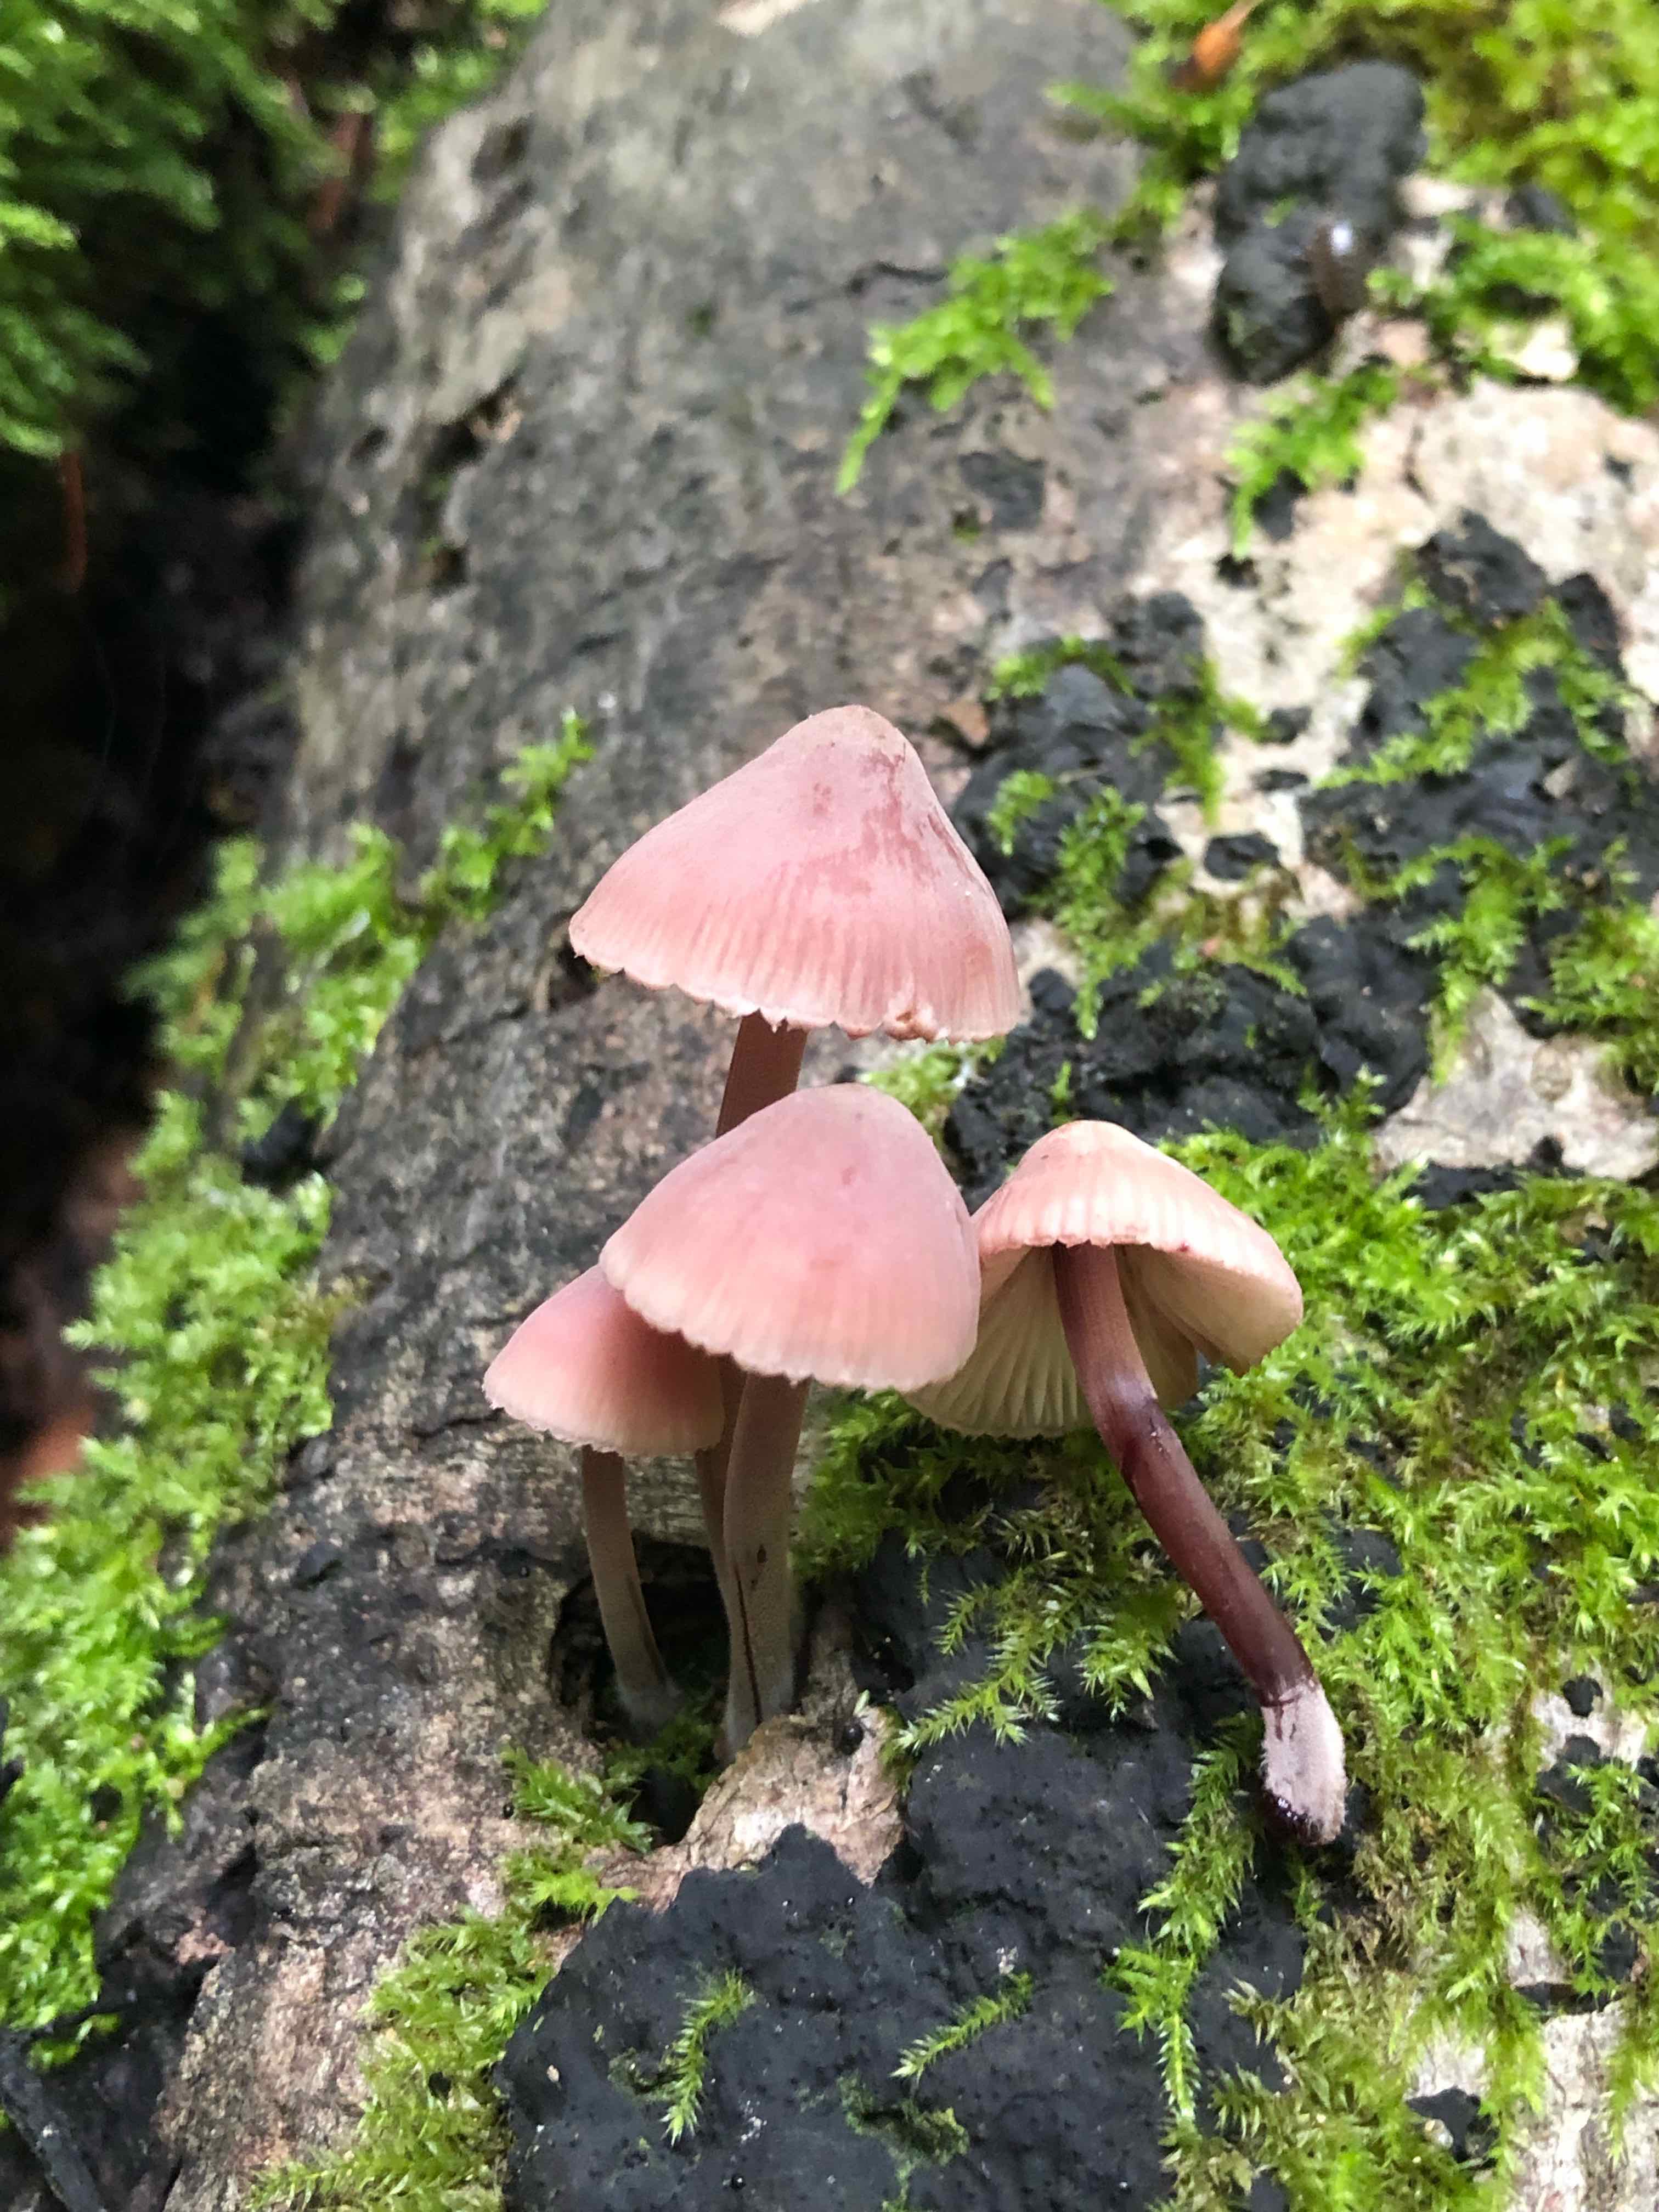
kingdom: Fungi
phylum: Basidiomycota
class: Agaricomycetes
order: Agaricales
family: Mycenaceae
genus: Mycena
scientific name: Mycena haematopus
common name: blødende huesvamp
